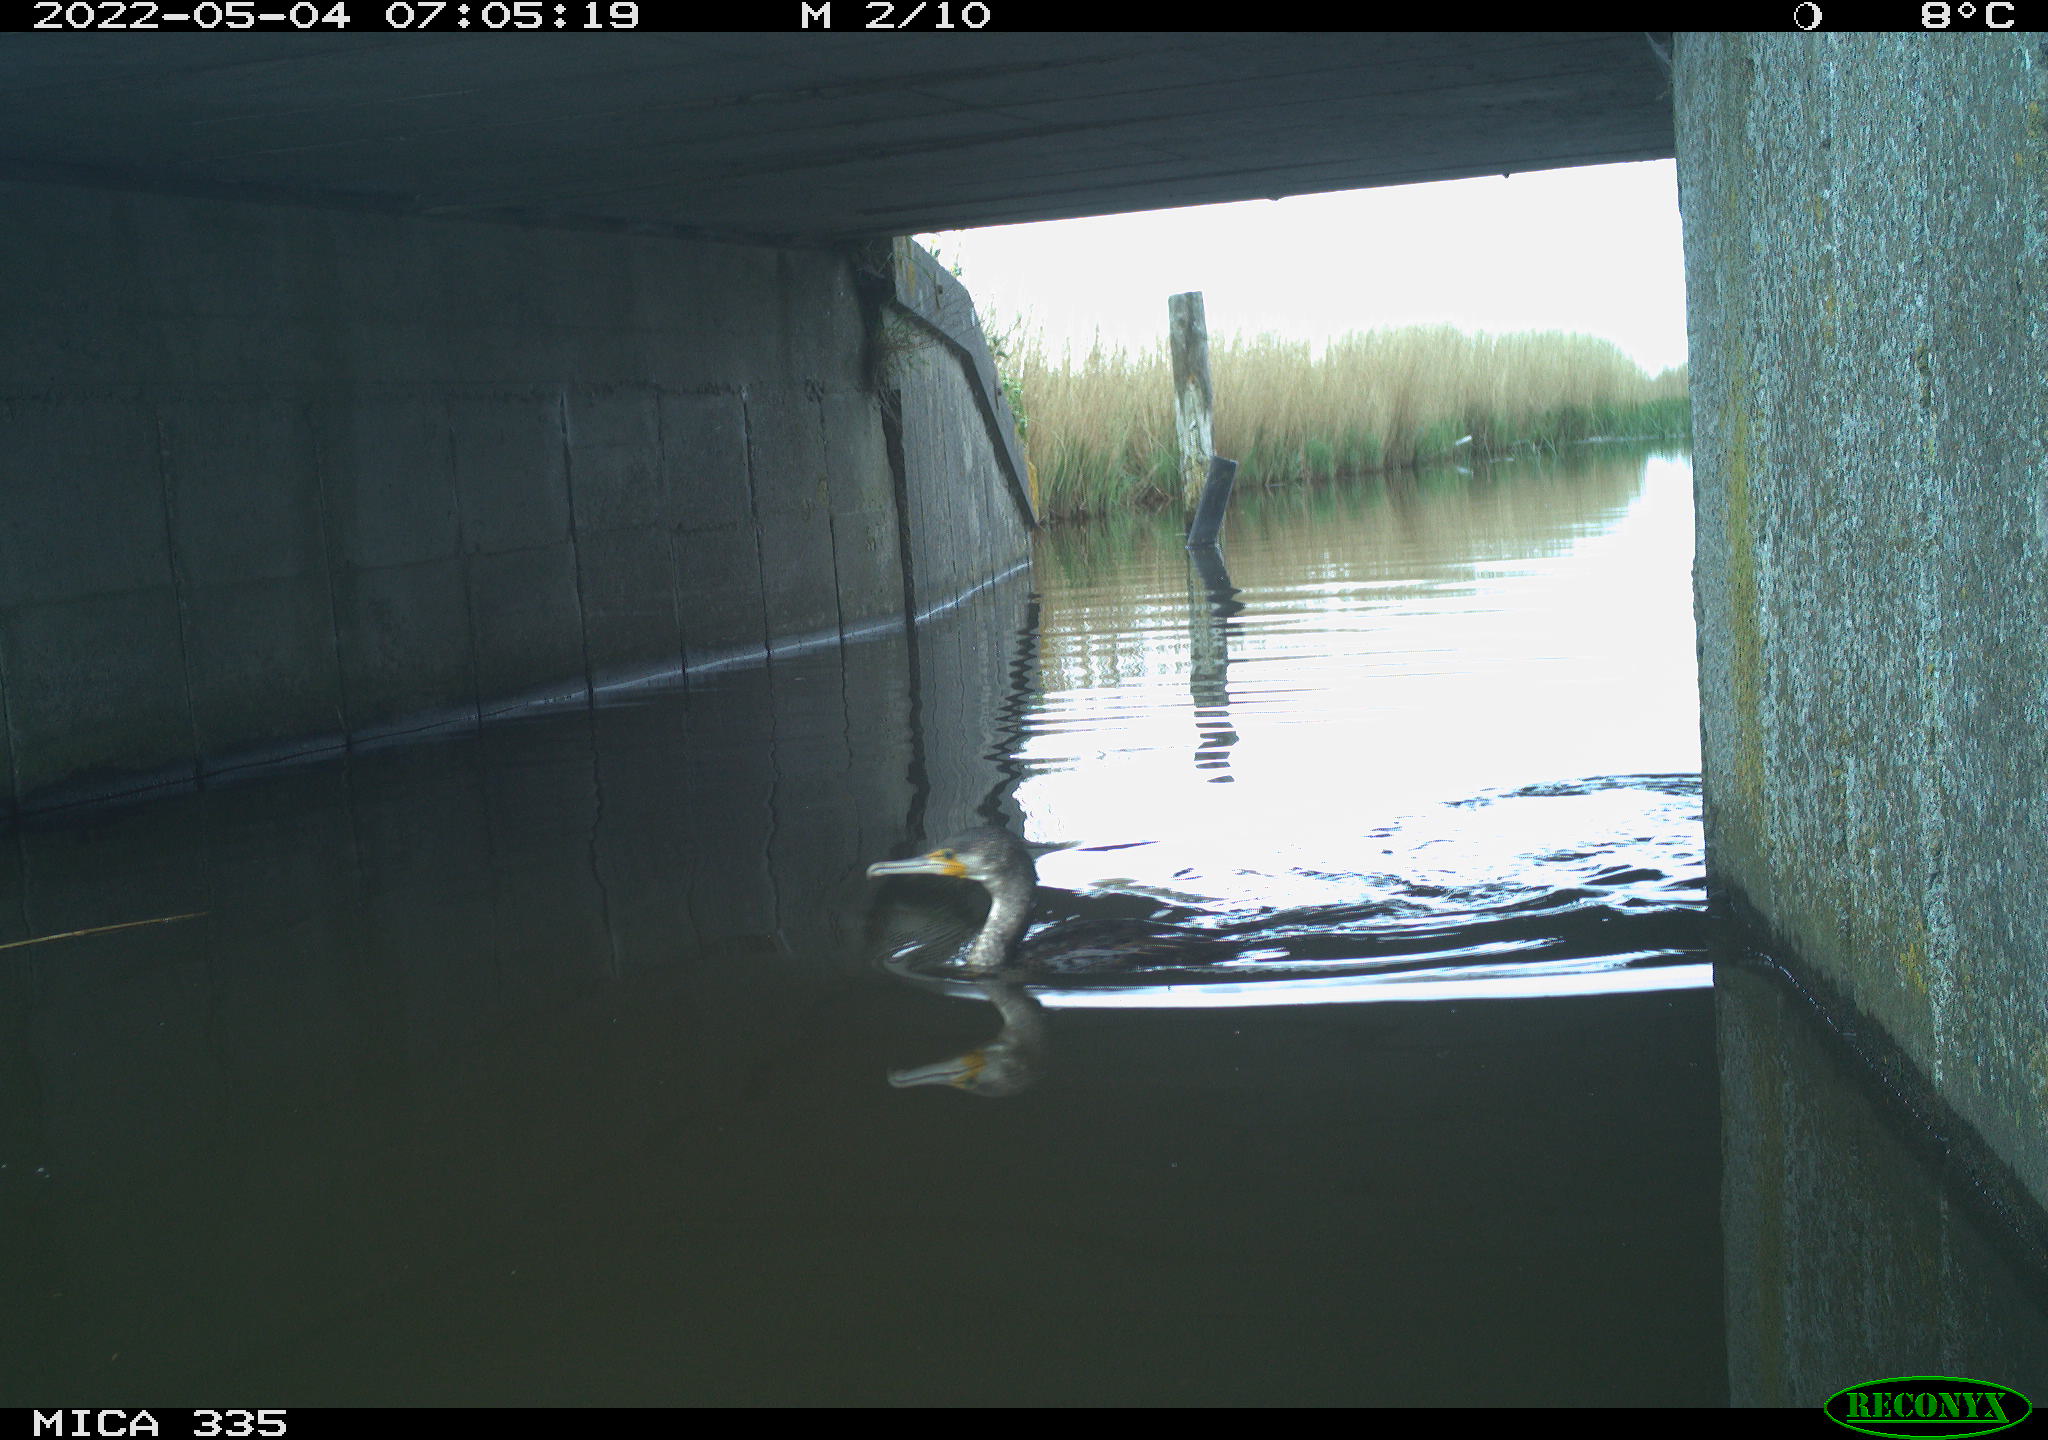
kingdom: Animalia
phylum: Chordata
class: Aves
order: Suliformes
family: Phalacrocoracidae
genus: Phalacrocorax
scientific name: Phalacrocorax carbo
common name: Great cormorant
